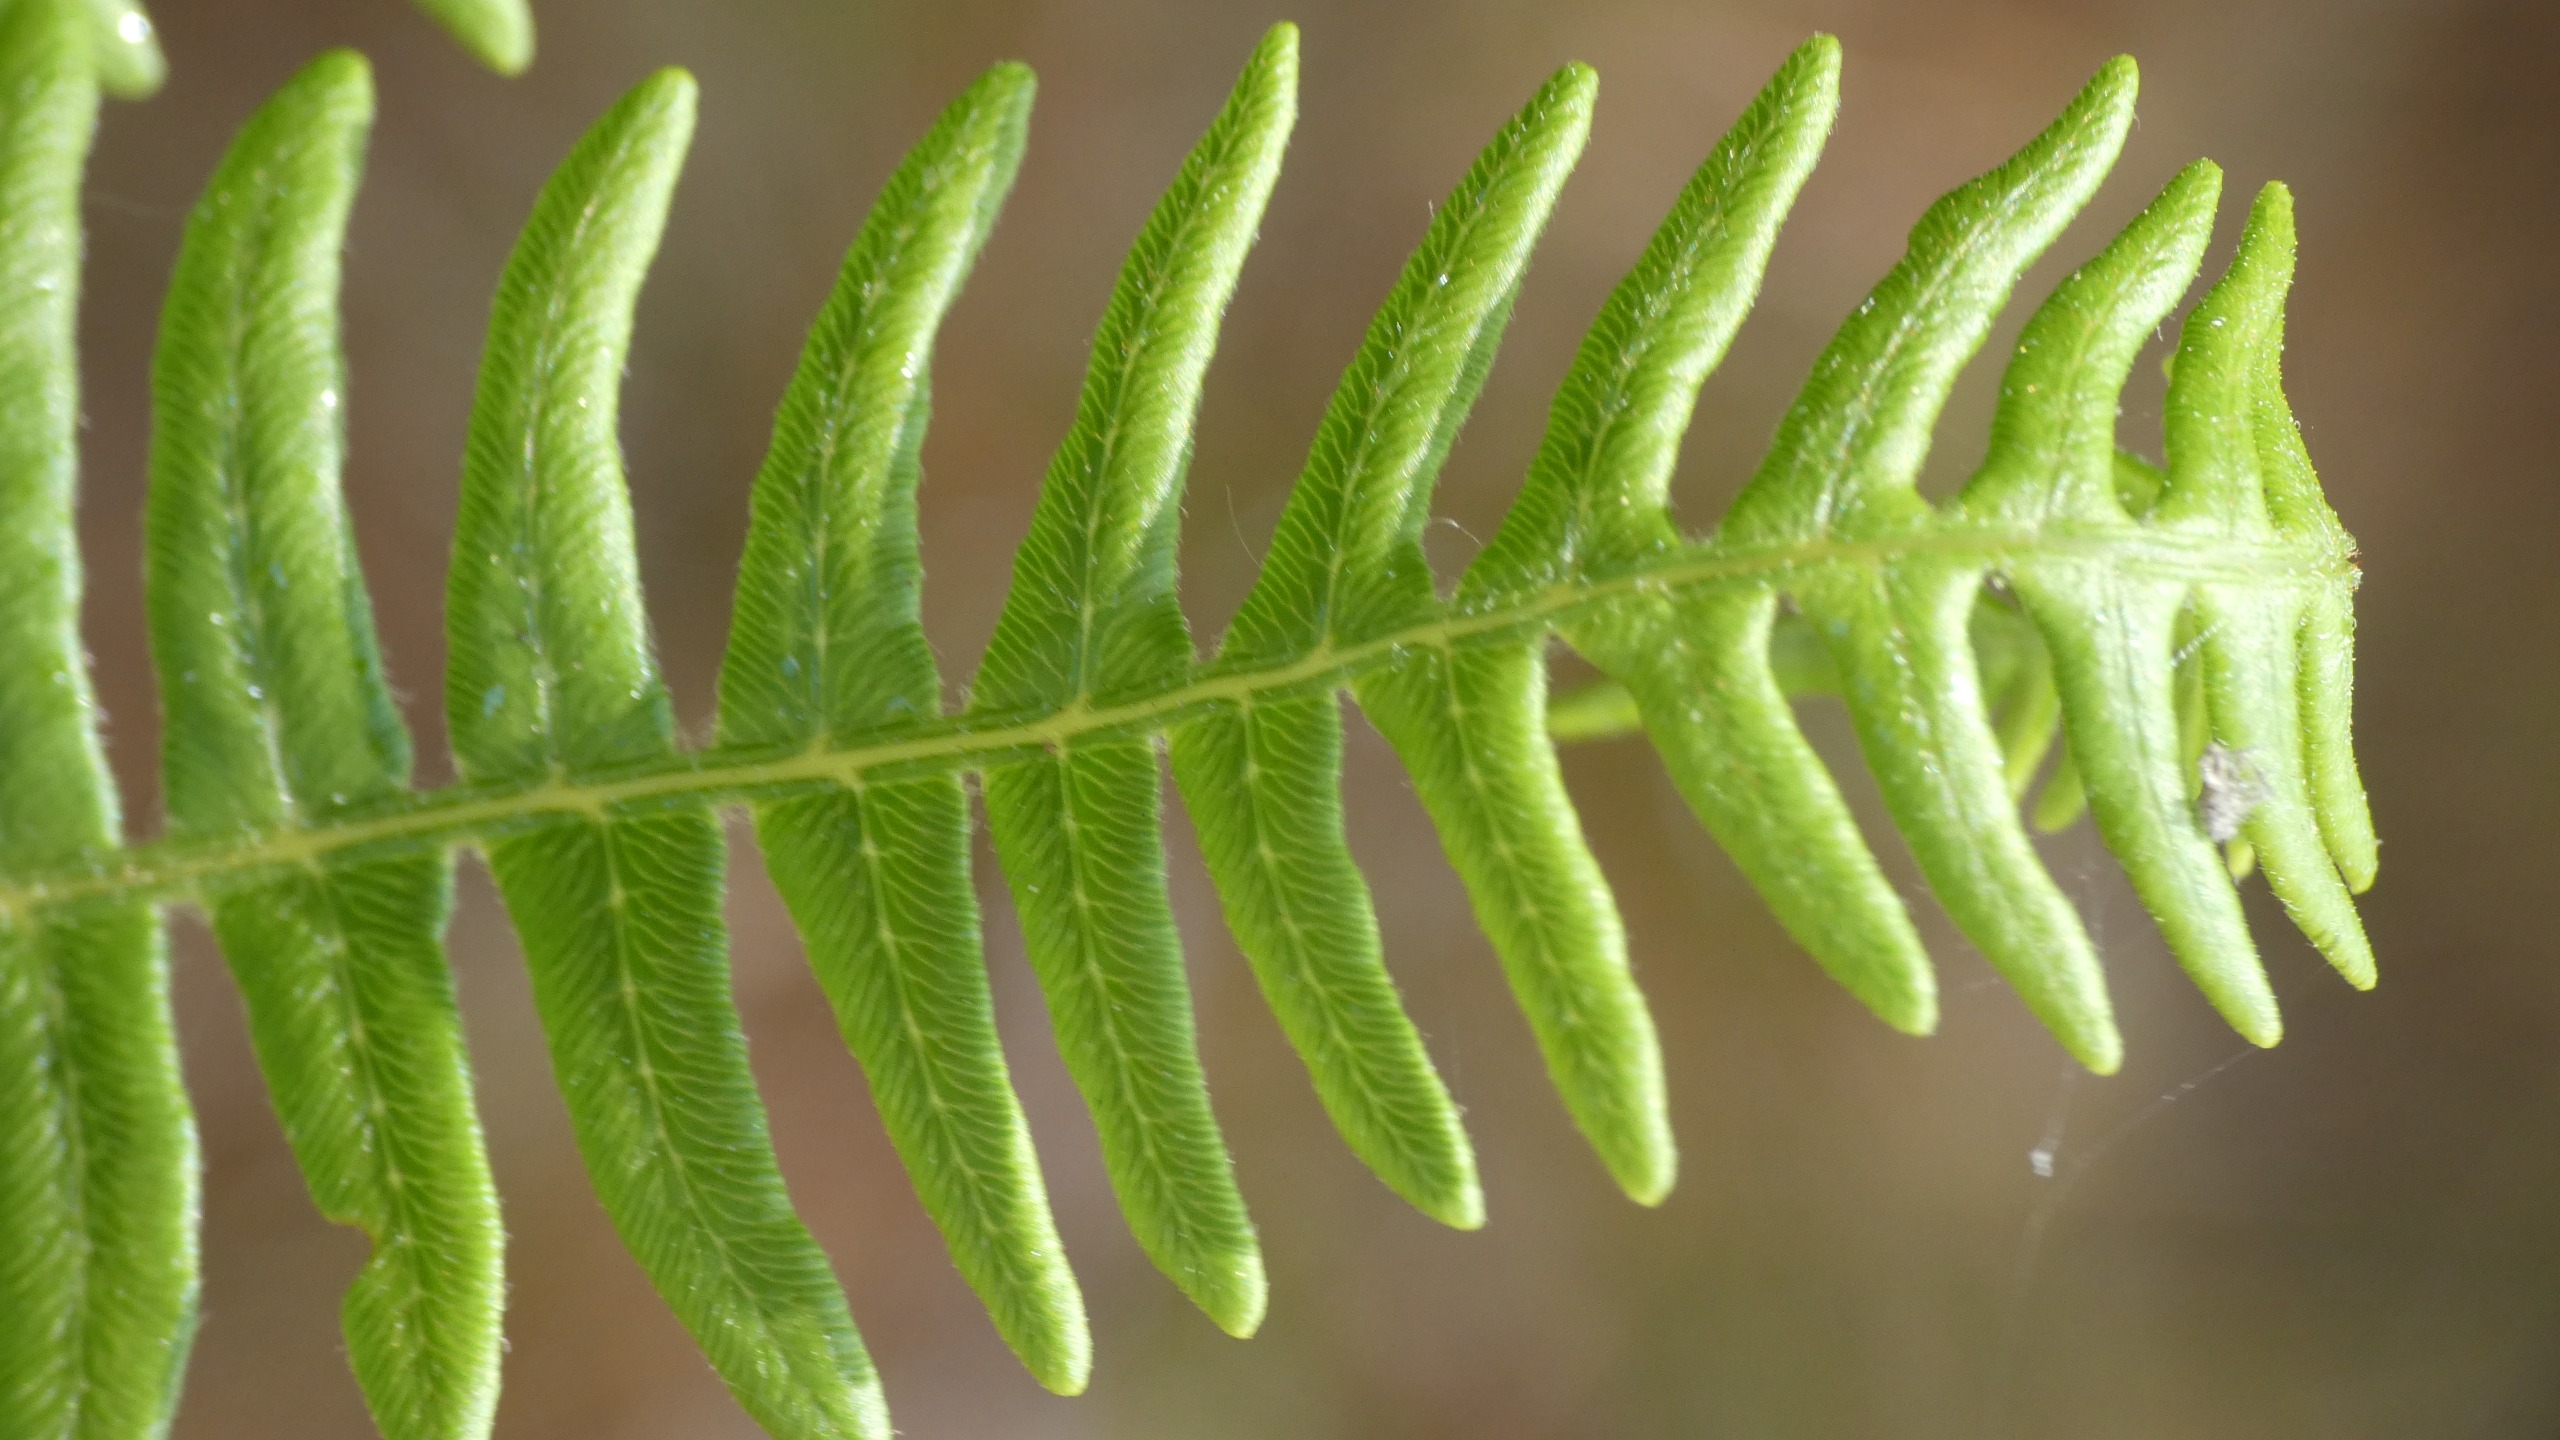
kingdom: Plantae
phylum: Tracheophyta
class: Polypodiopsida
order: Polypodiales
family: Dennstaedtiaceae
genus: Pteridium
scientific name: Pteridium aquilinum
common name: Ørnebregne
